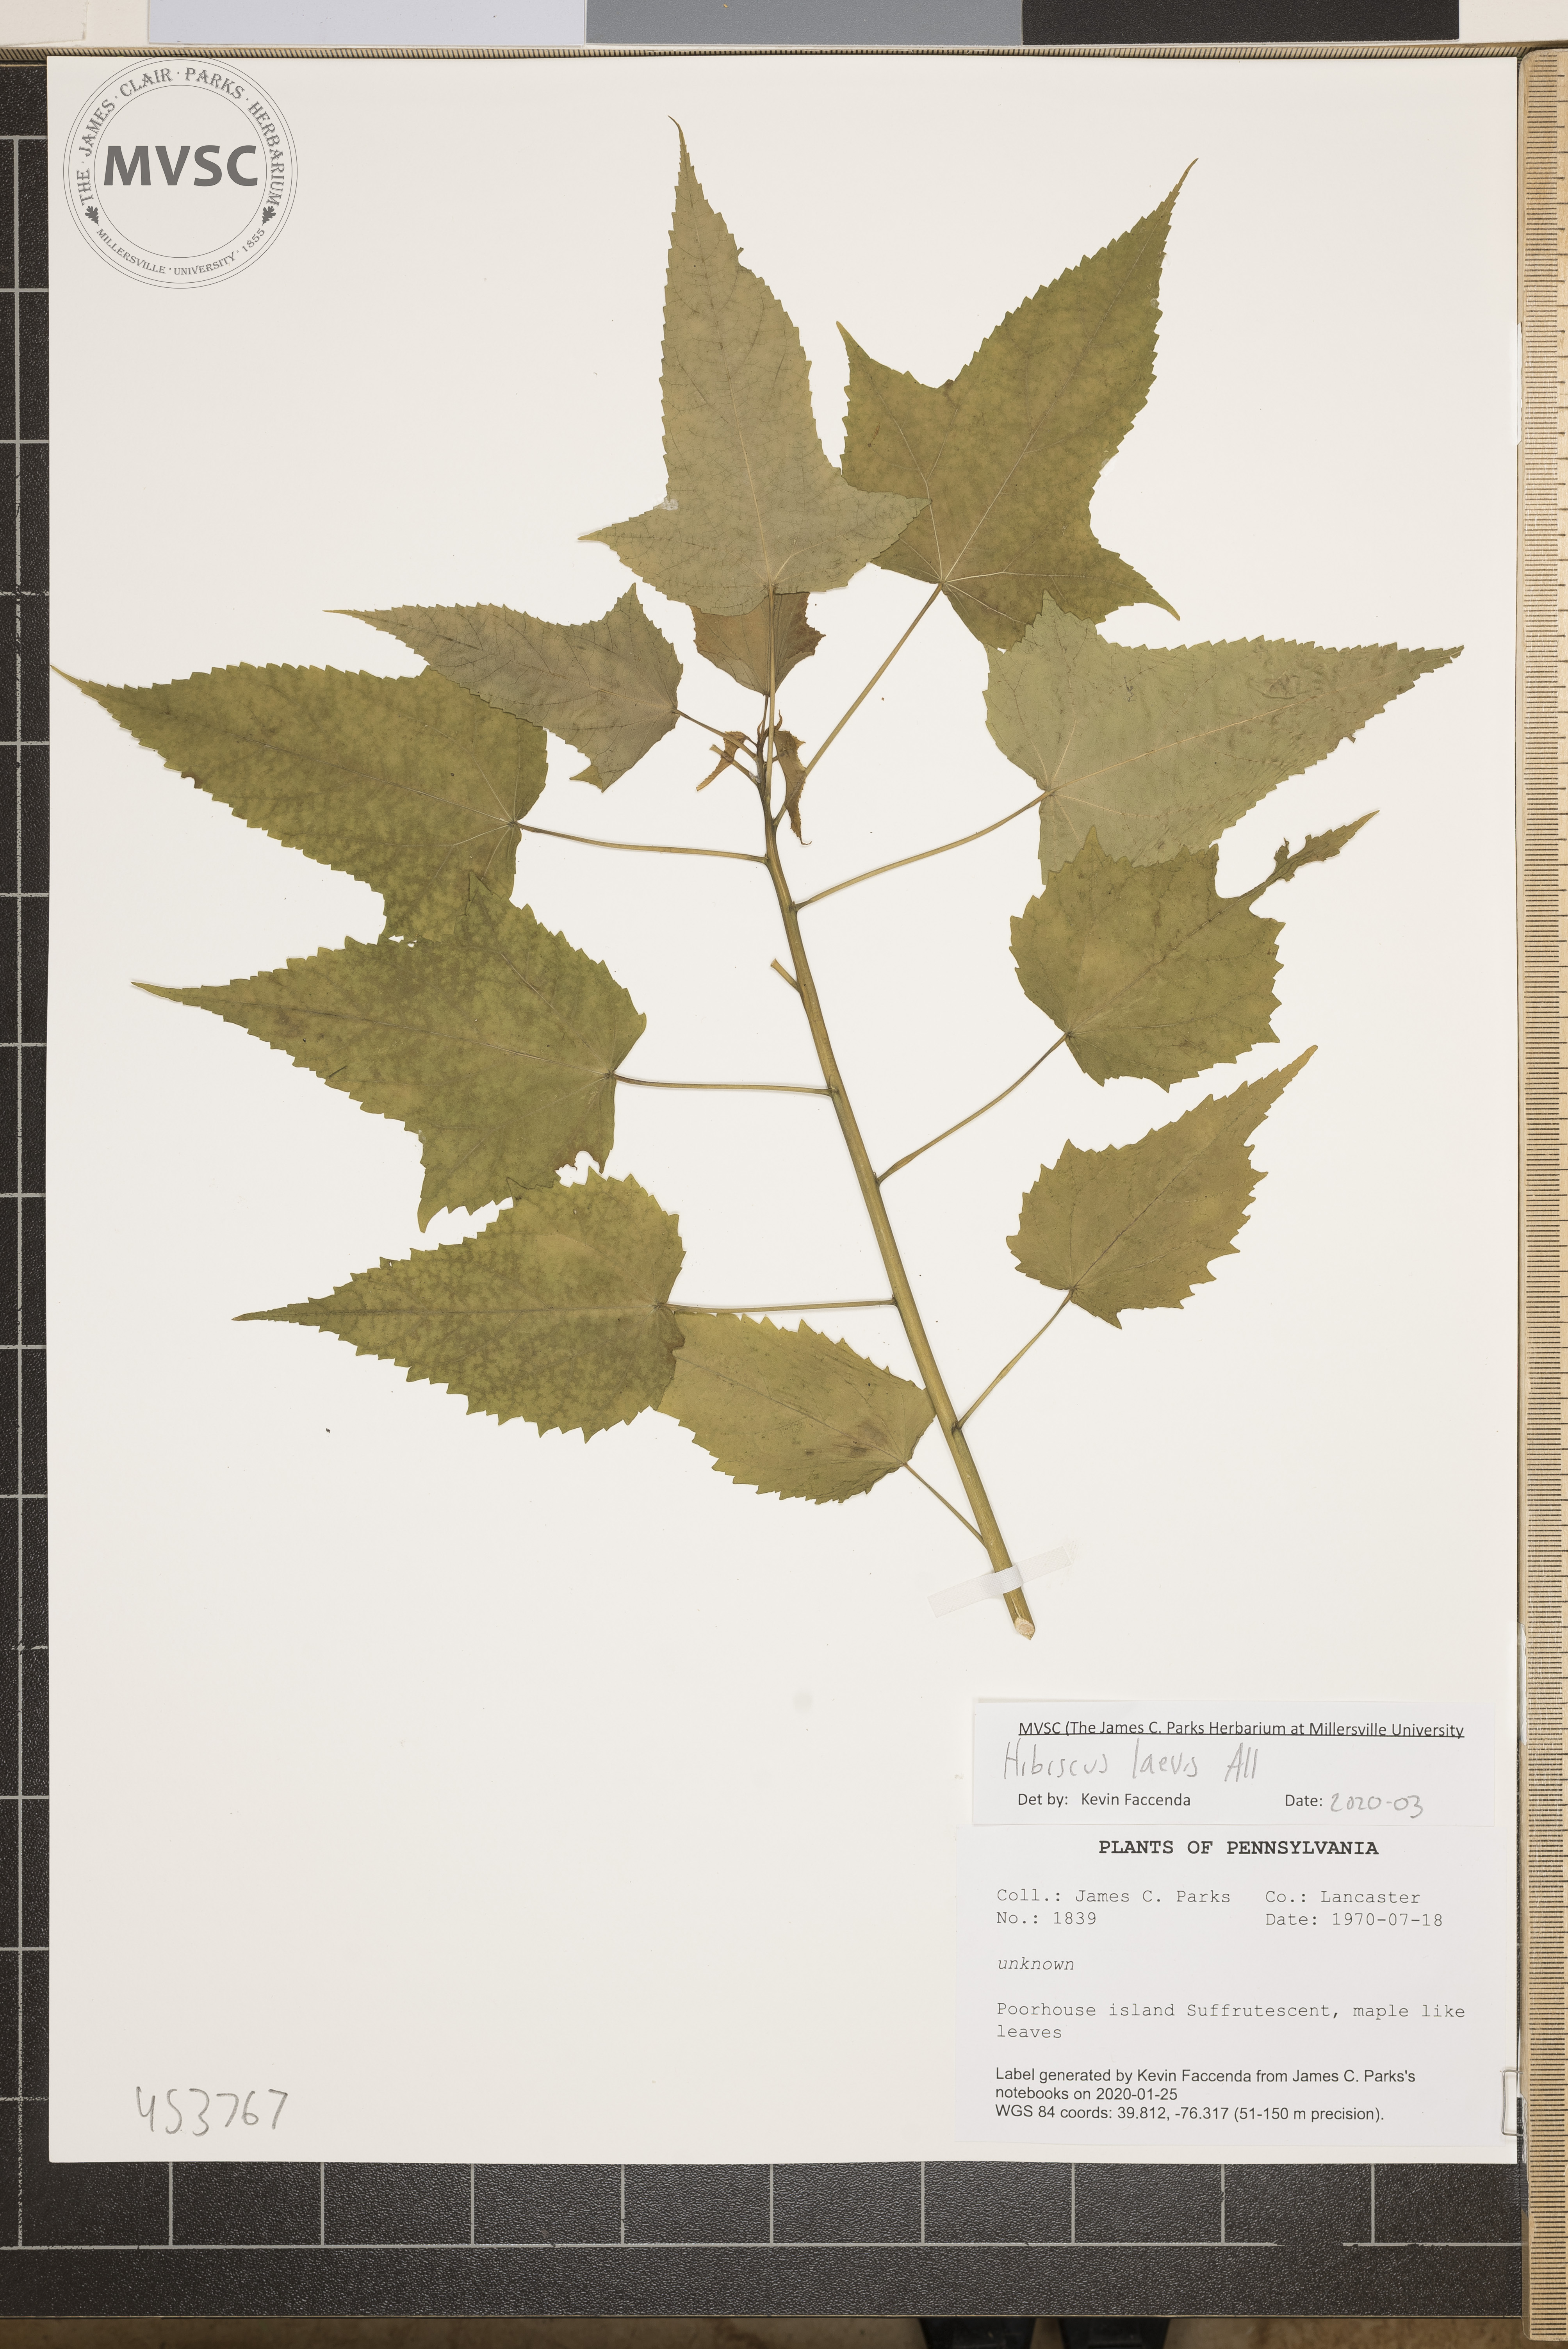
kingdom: Plantae
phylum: Tracheophyta
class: Magnoliopsida
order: Malvales
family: Malvaceae
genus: Hibiscus
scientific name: Hibiscus laevis
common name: Scarlet rose-mallow
